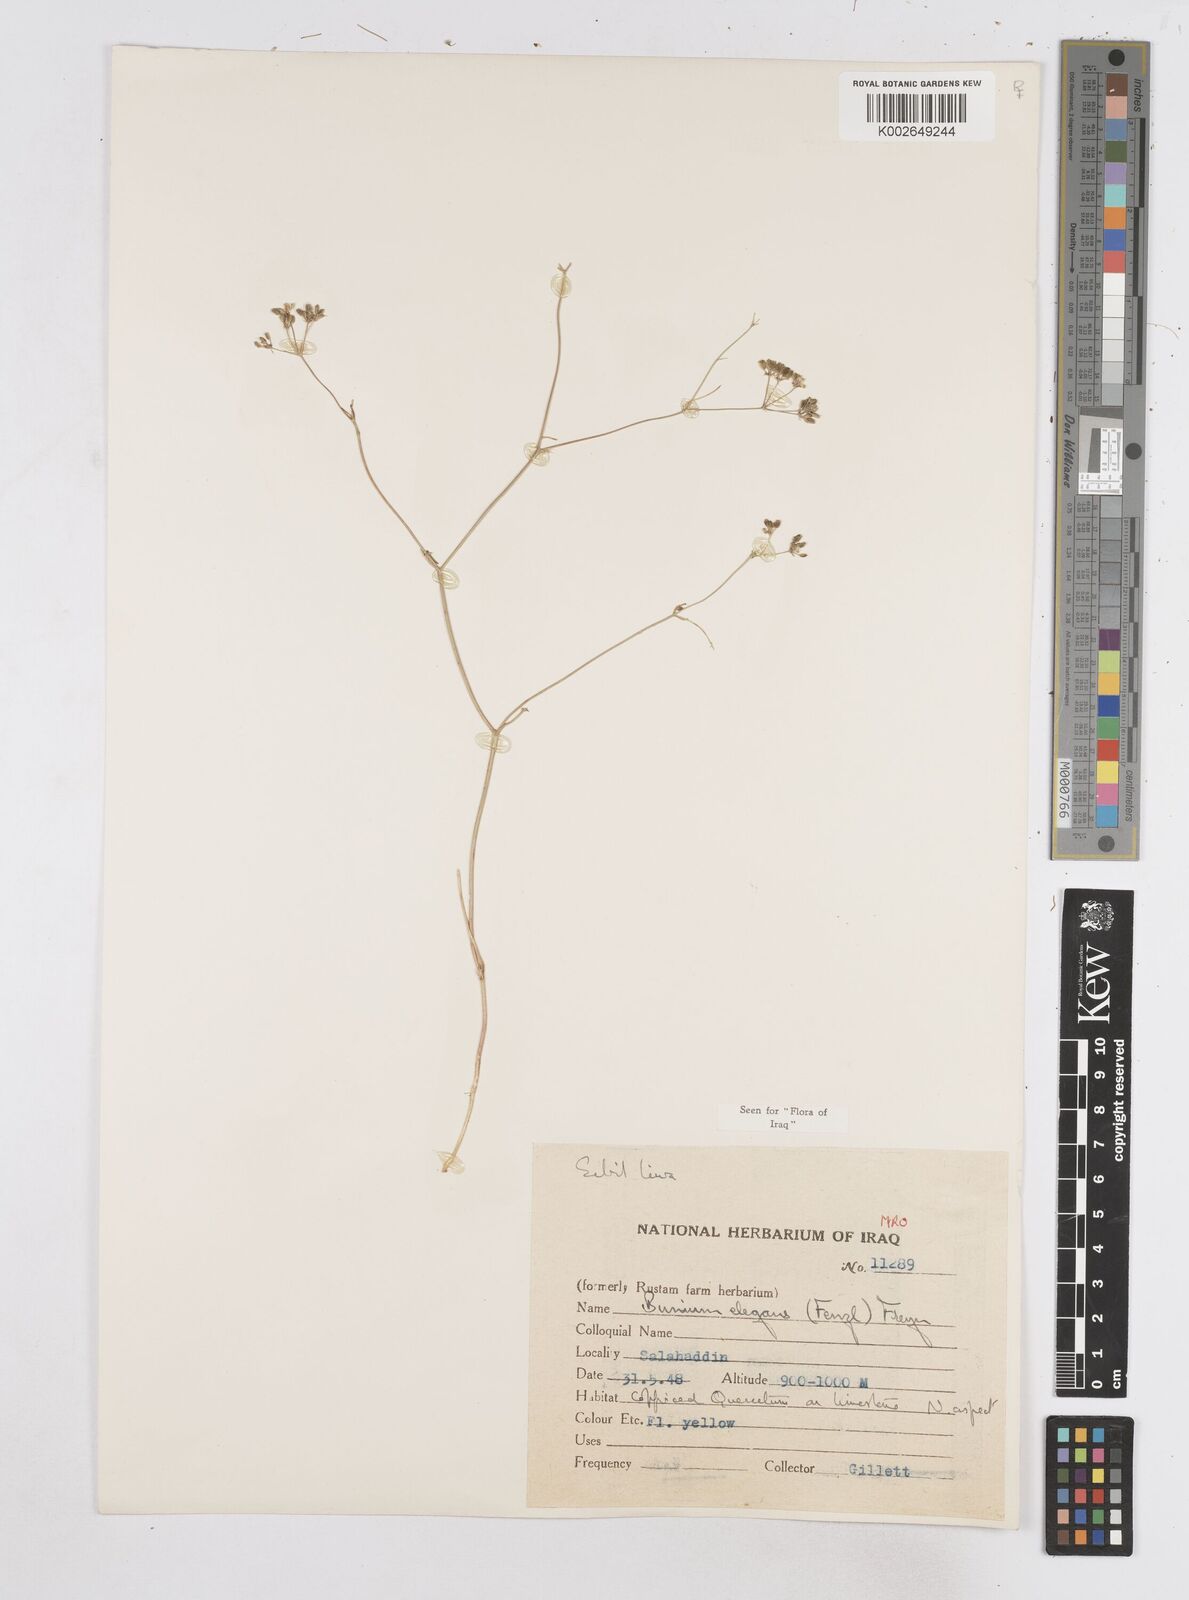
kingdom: Plantae
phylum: Tracheophyta
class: Magnoliopsida
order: Apiales
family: Apiaceae
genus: Bunium
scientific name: Bunium paucifolium
